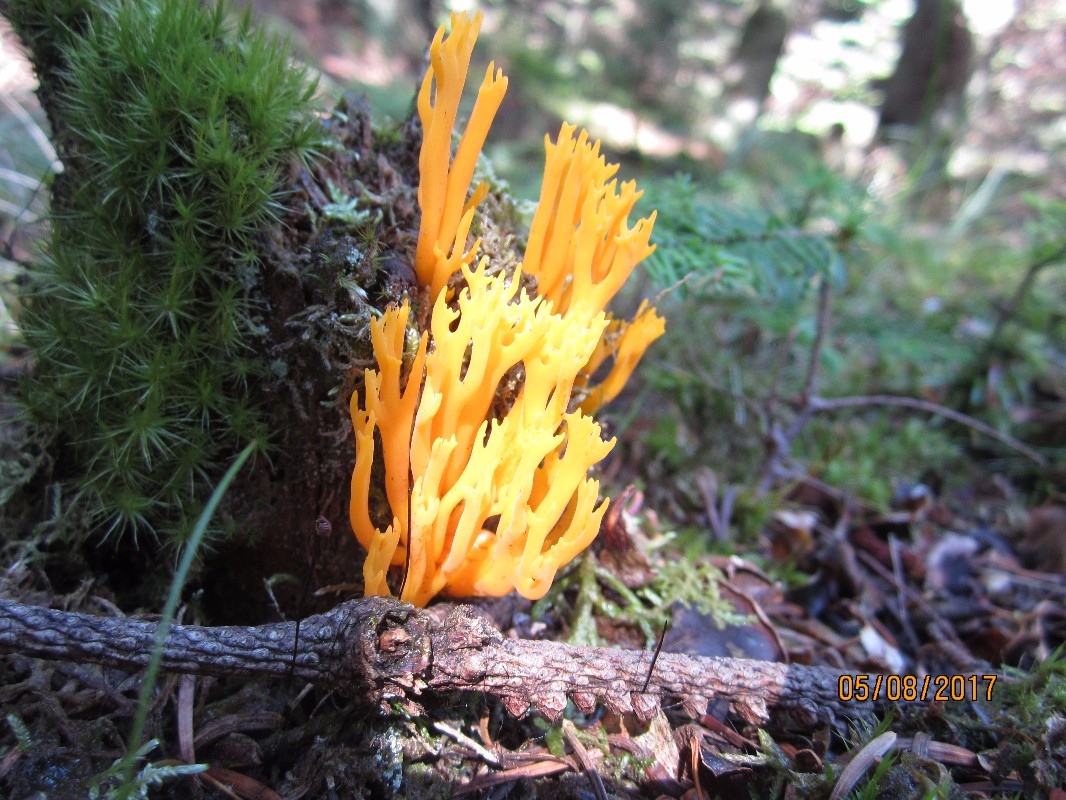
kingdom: Fungi
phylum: Basidiomycota
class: Dacrymycetes
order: Dacrymycetales
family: Dacrymycetaceae
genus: Calocera
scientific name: Calocera viscosa
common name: almindelig guldgaffel
